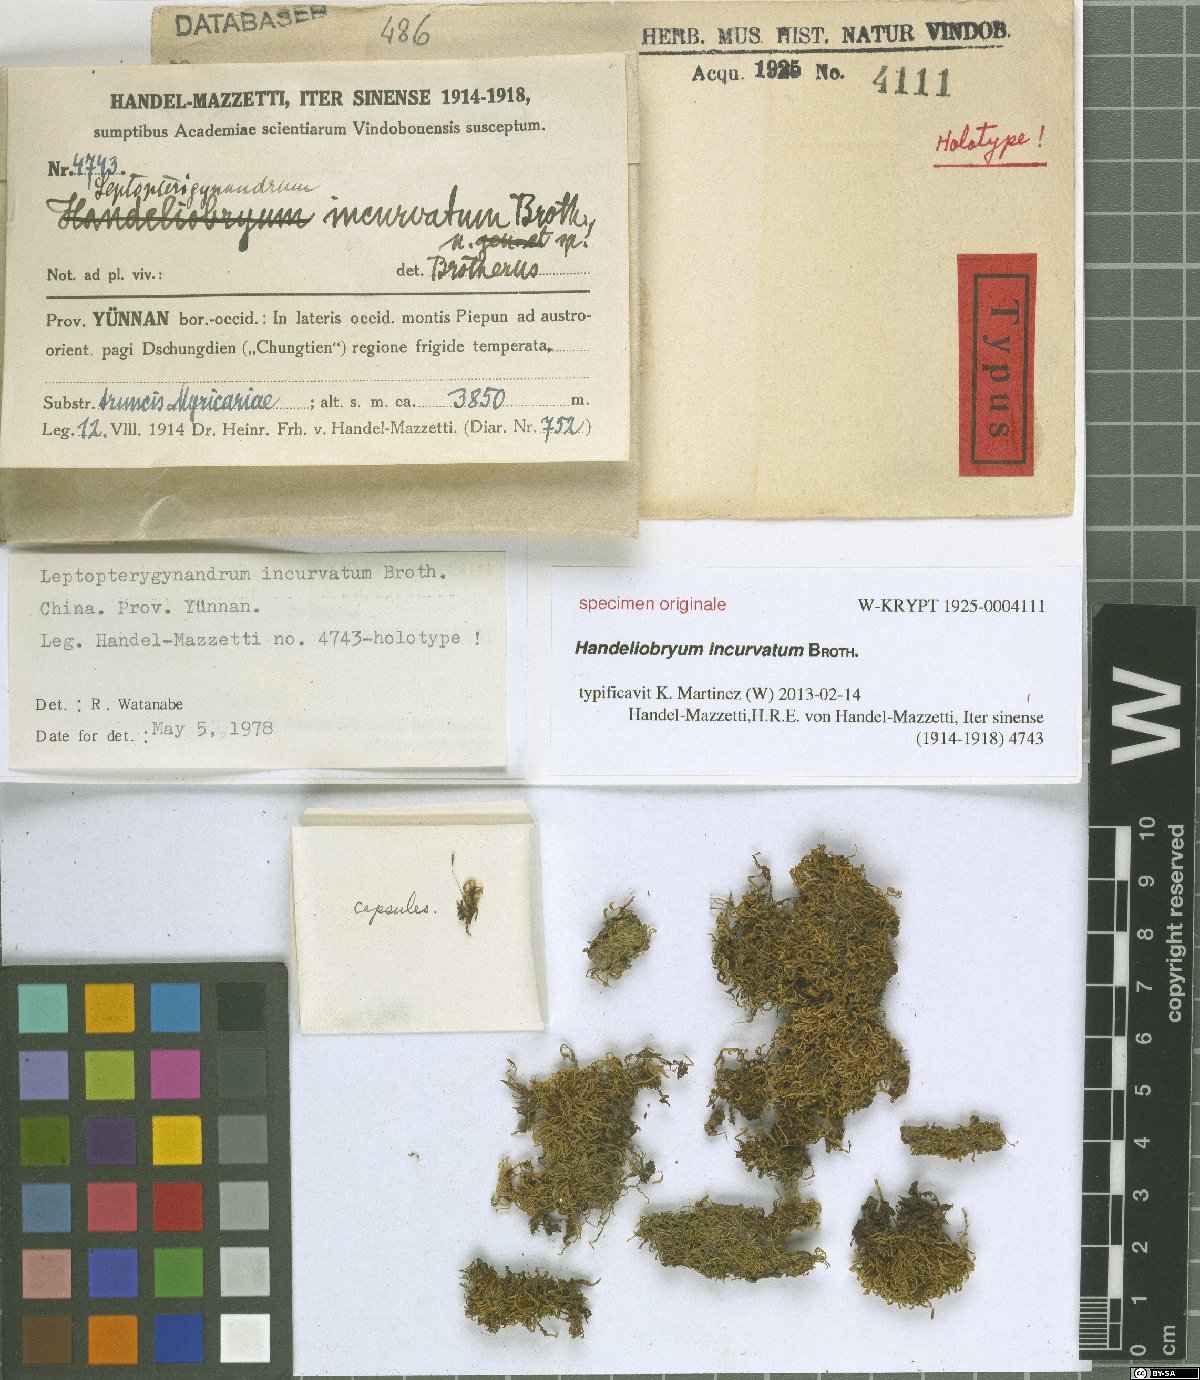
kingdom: Plantae
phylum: Bryophyta
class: Bryopsida
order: Hypnales
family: Taxiphyllaceae
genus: Leptopterigynandrum
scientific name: Leptopterigynandrum incurvatum
